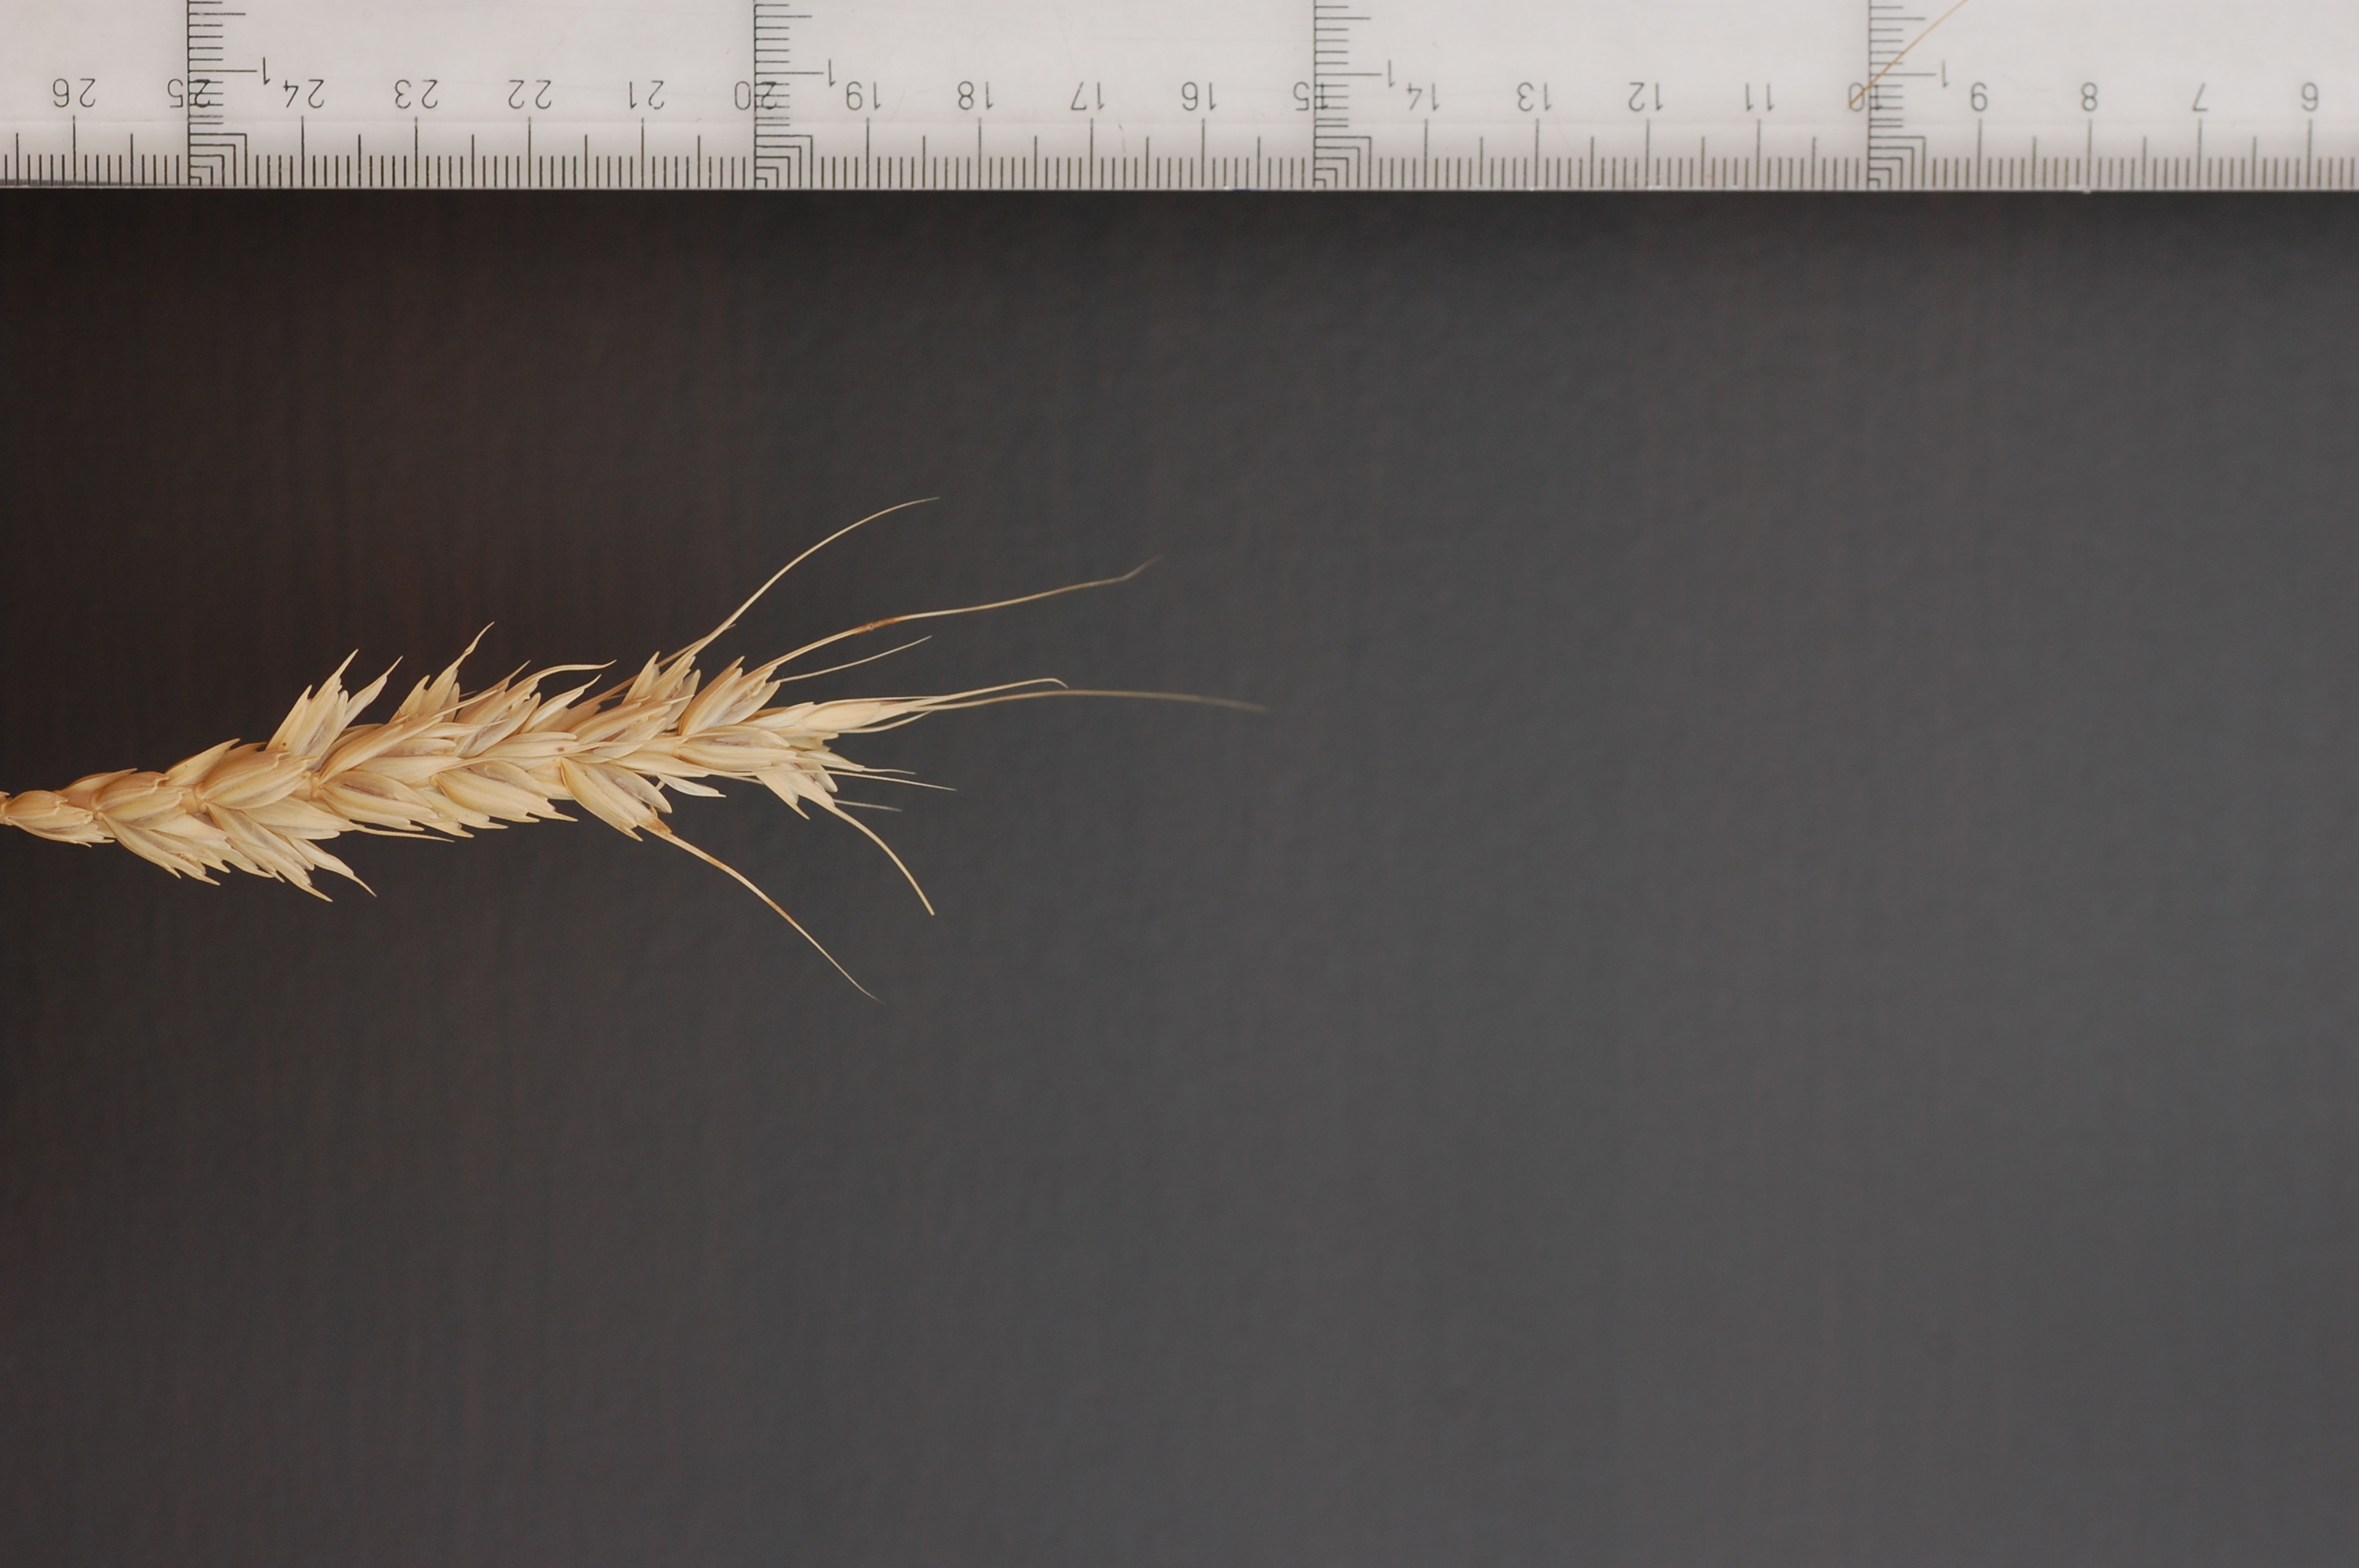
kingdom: Plantae
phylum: Tracheophyta
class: Liliopsida
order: Poales
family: Poaceae
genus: Triticum
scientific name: Triticum aestivum
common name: Common wheat
